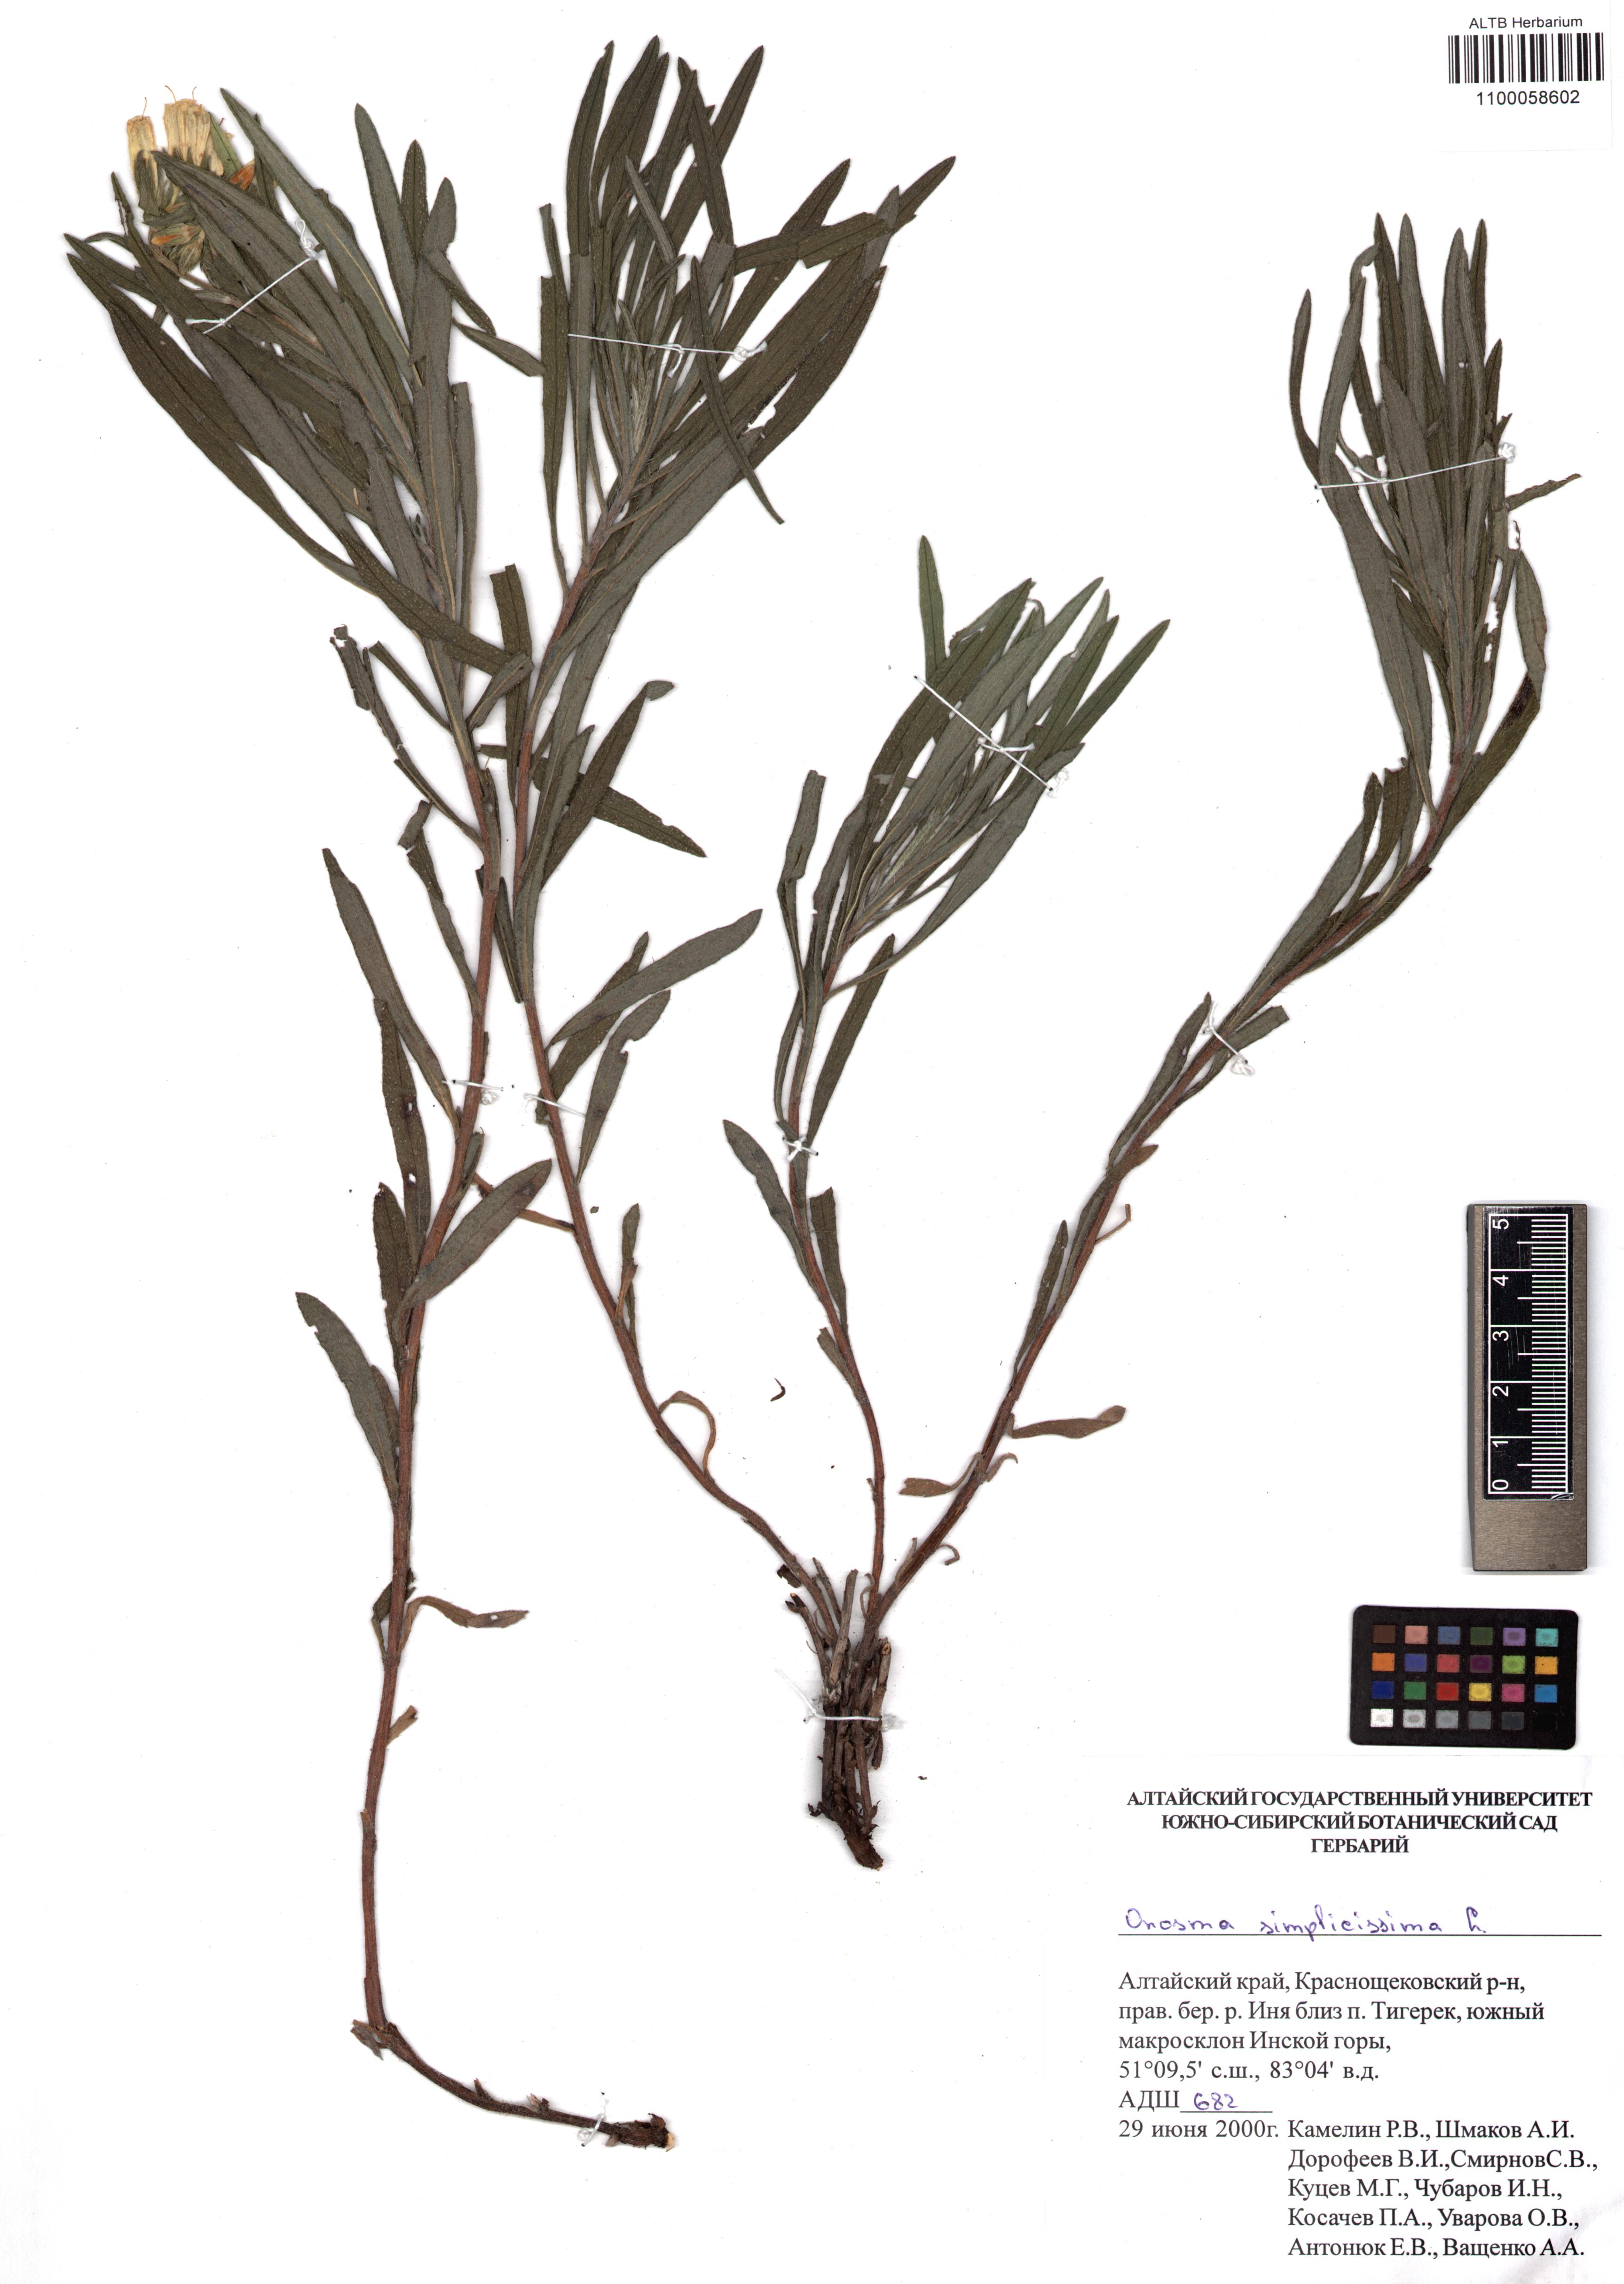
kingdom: Plantae
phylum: Tracheophyta
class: Magnoliopsida
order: Boraginales
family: Boraginaceae
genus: Onosma
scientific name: Onosma simplicissima
